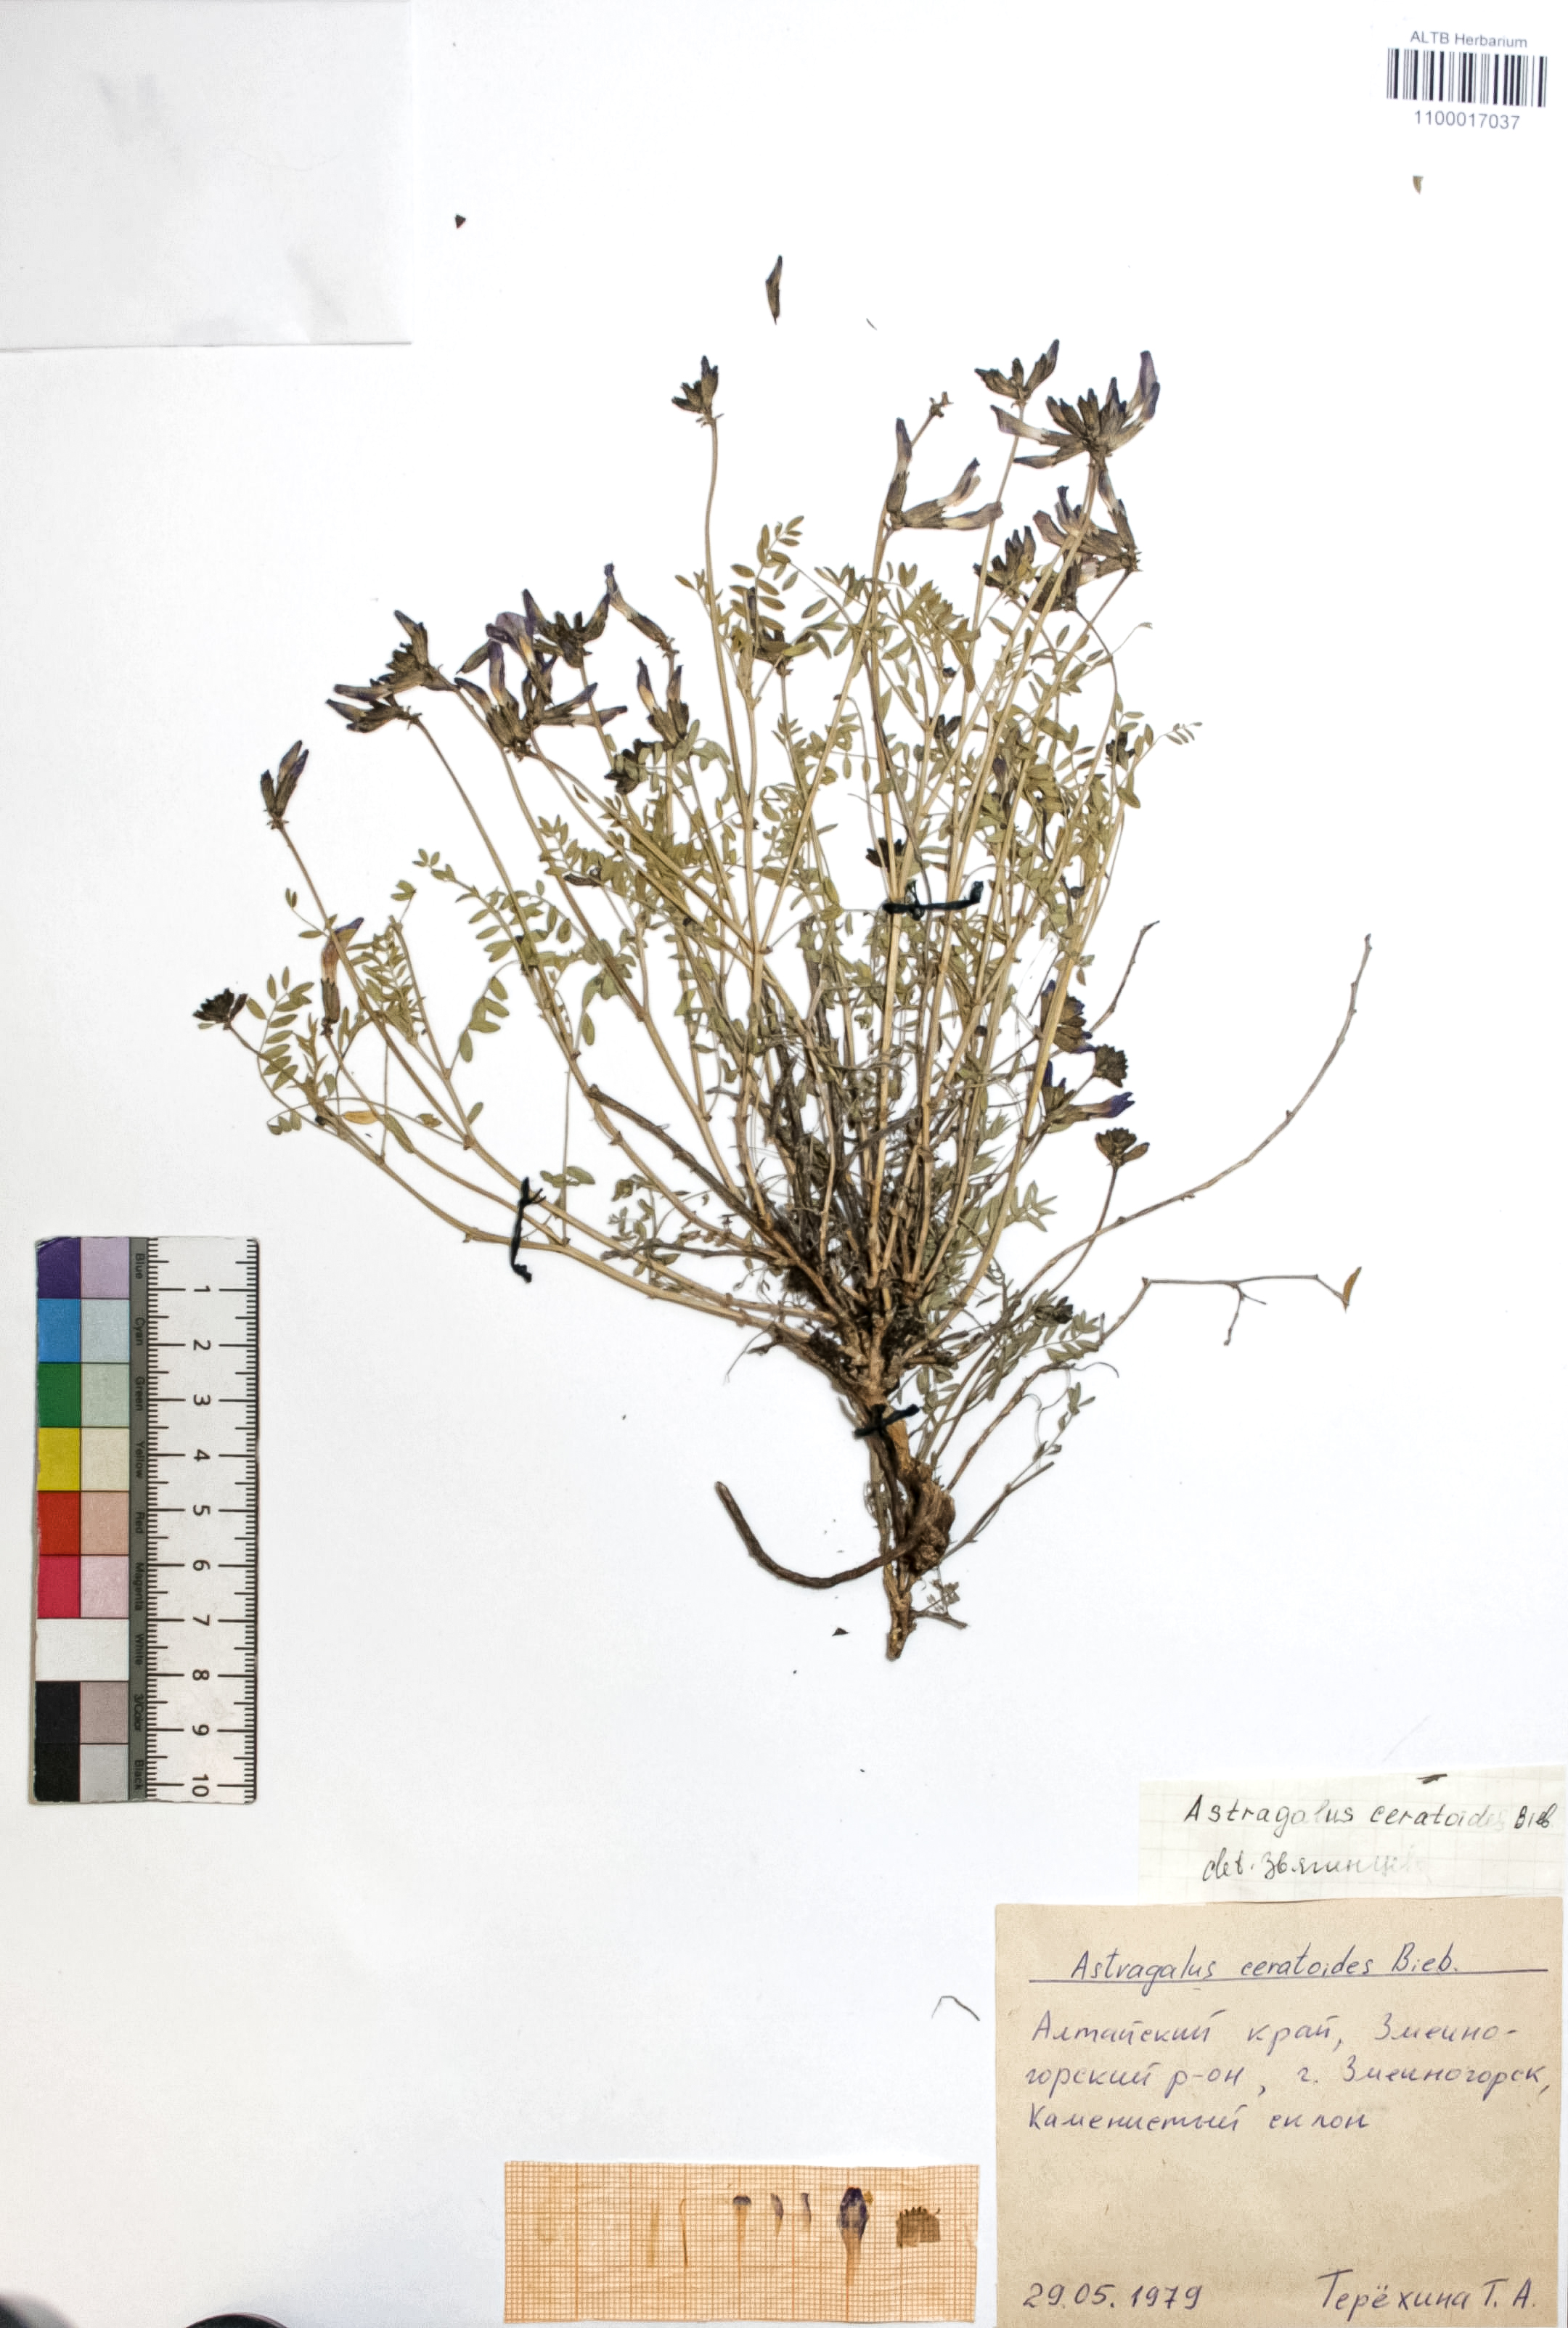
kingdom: Plantae
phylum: Tracheophyta
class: Magnoliopsida
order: Fabales
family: Fabaceae
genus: Astragalus
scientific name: Astragalus ceratoides
